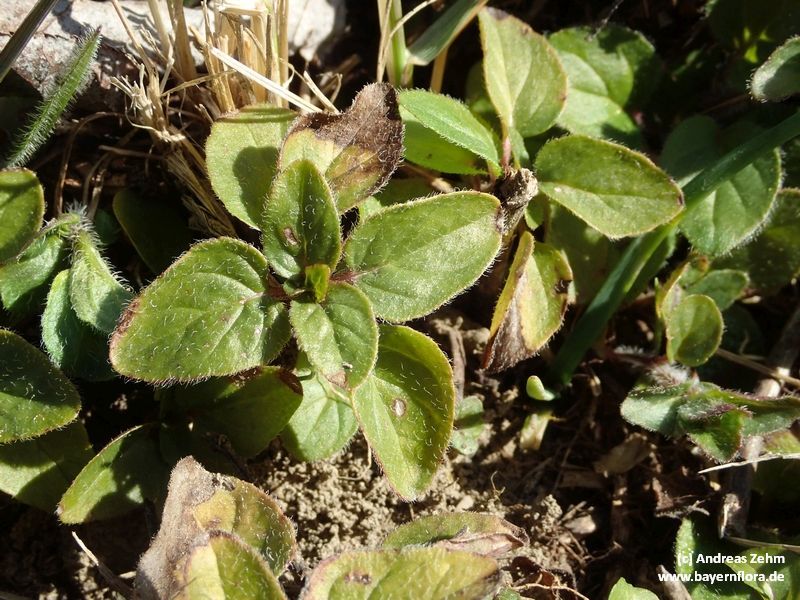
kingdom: Plantae
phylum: Tracheophyta
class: Magnoliopsida
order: Lamiales
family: Lamiaceae
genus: Clinopodium
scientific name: Clinopodium vulgare
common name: Wild basil
